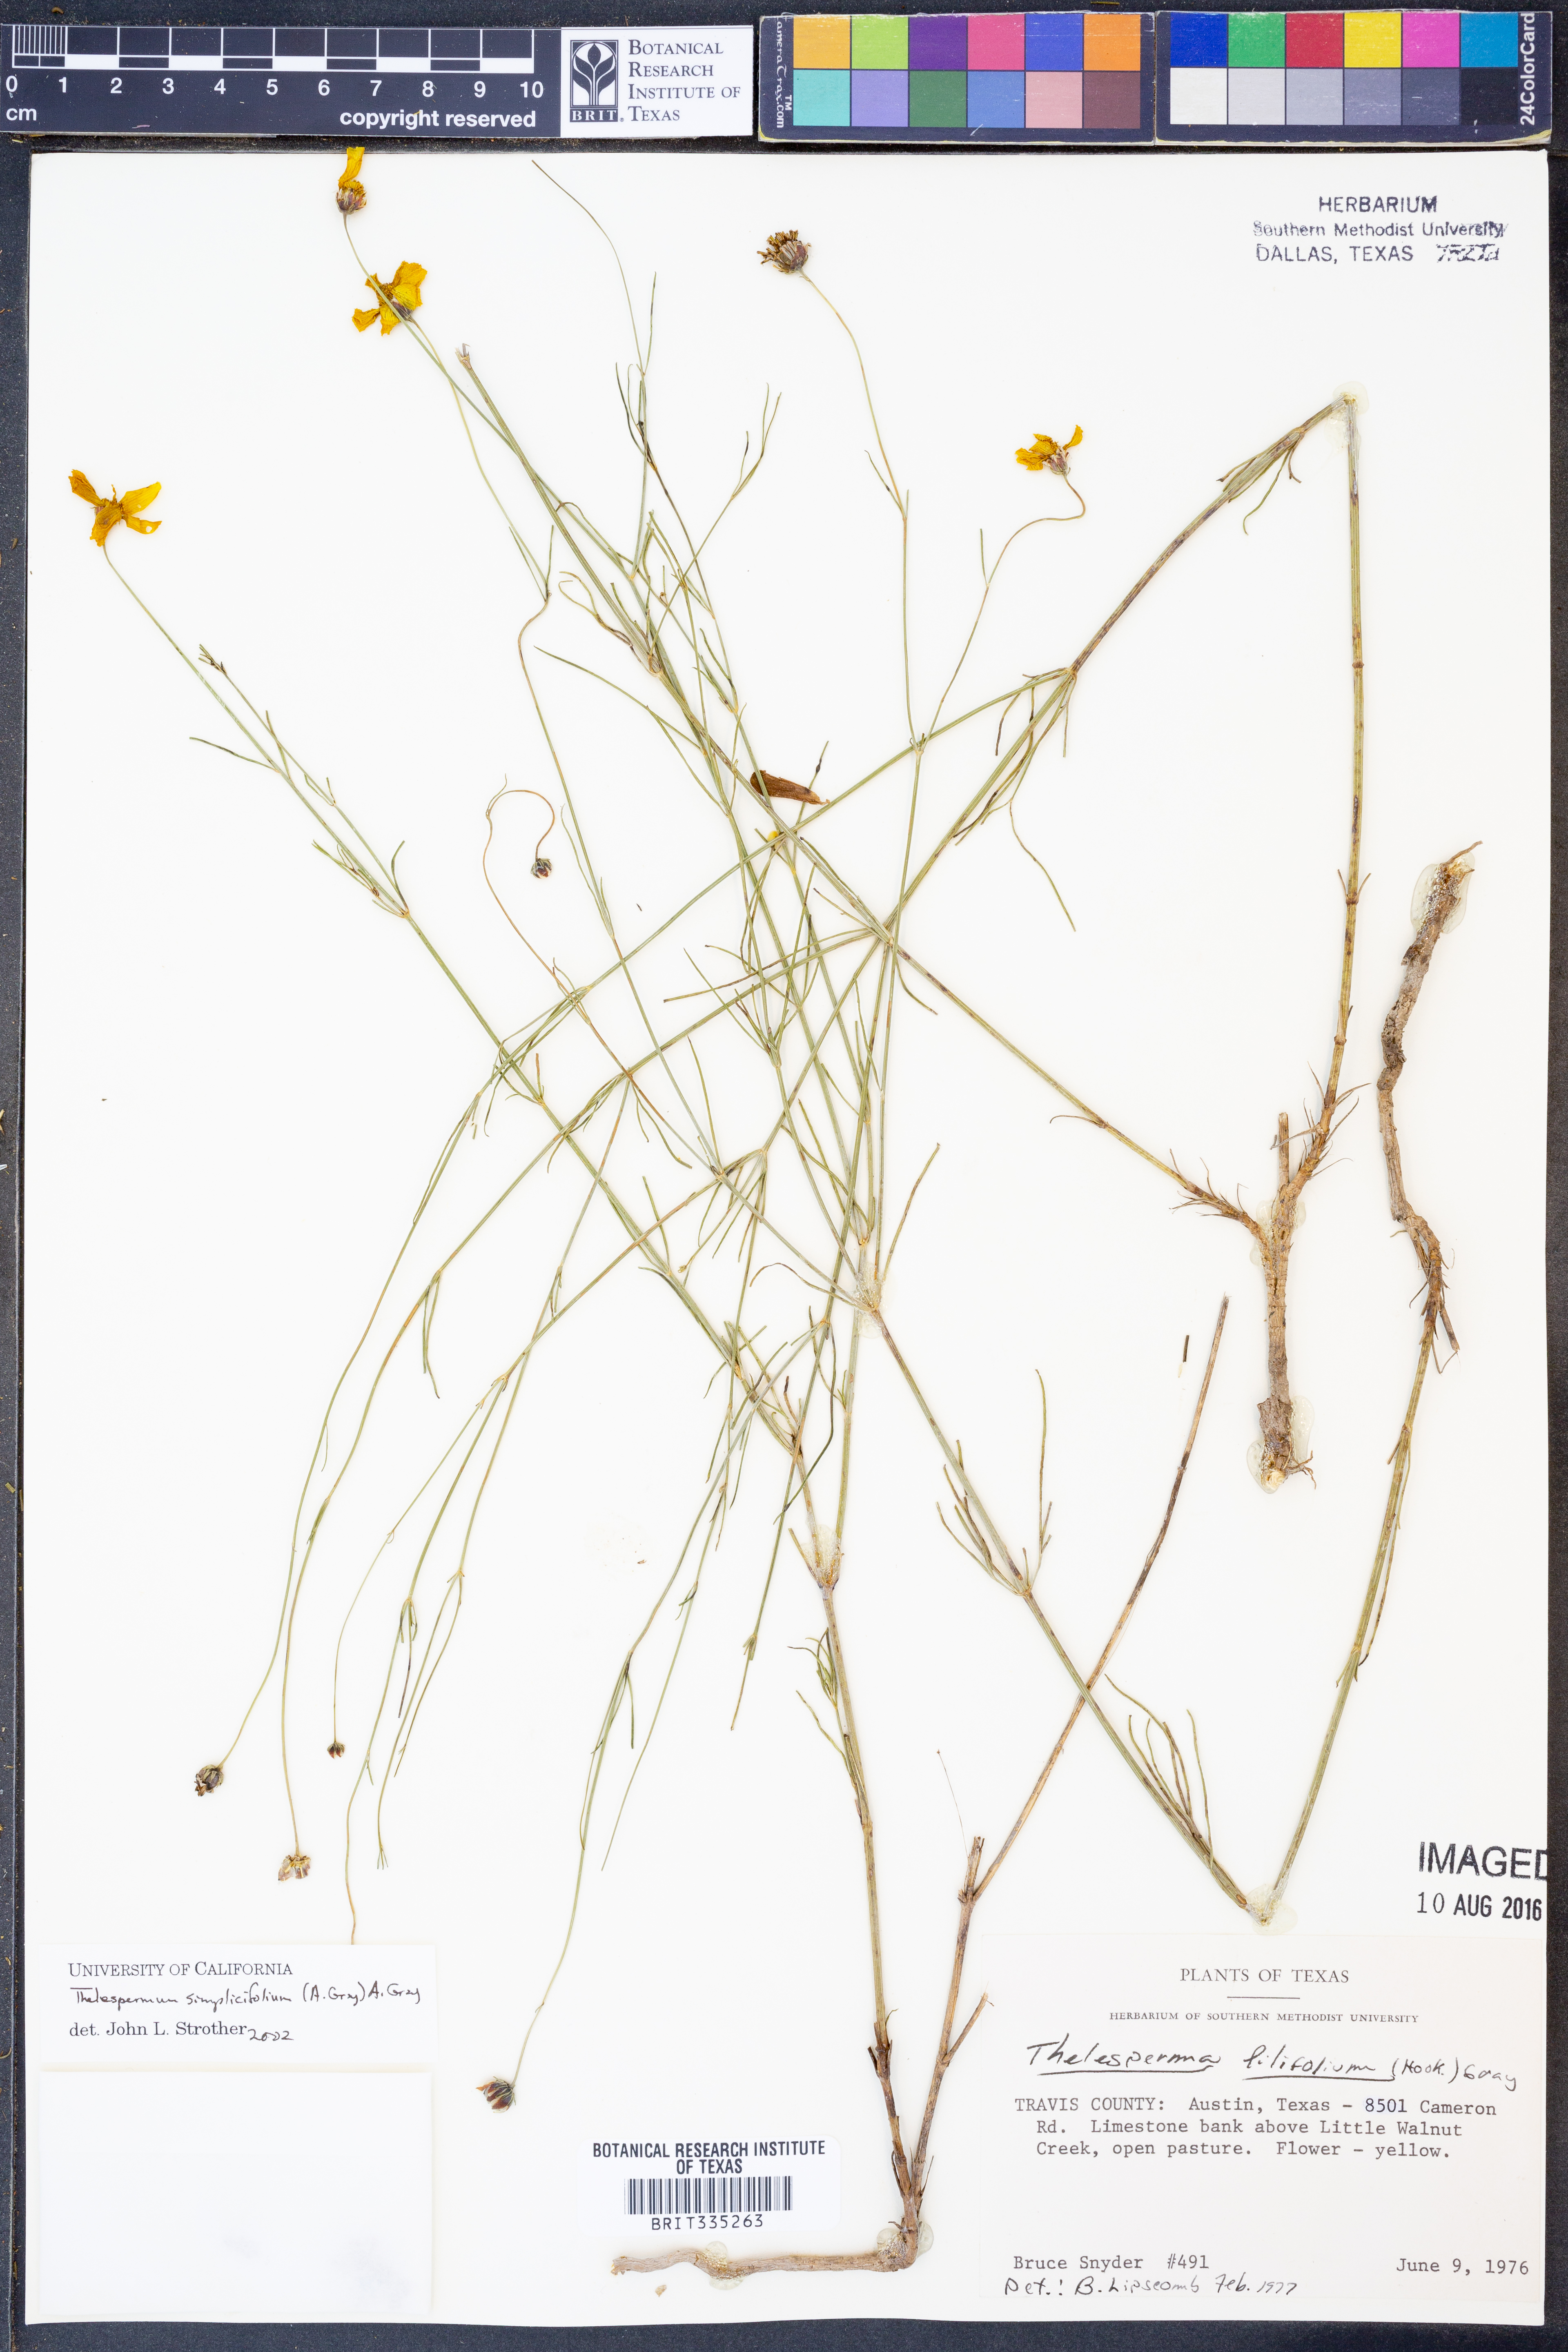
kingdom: Plantae
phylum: Tracheophyta
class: Magnoliopsida
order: Asterales
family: Asteraceae
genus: Thelesperma
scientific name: Thelesperma simplicifolium
